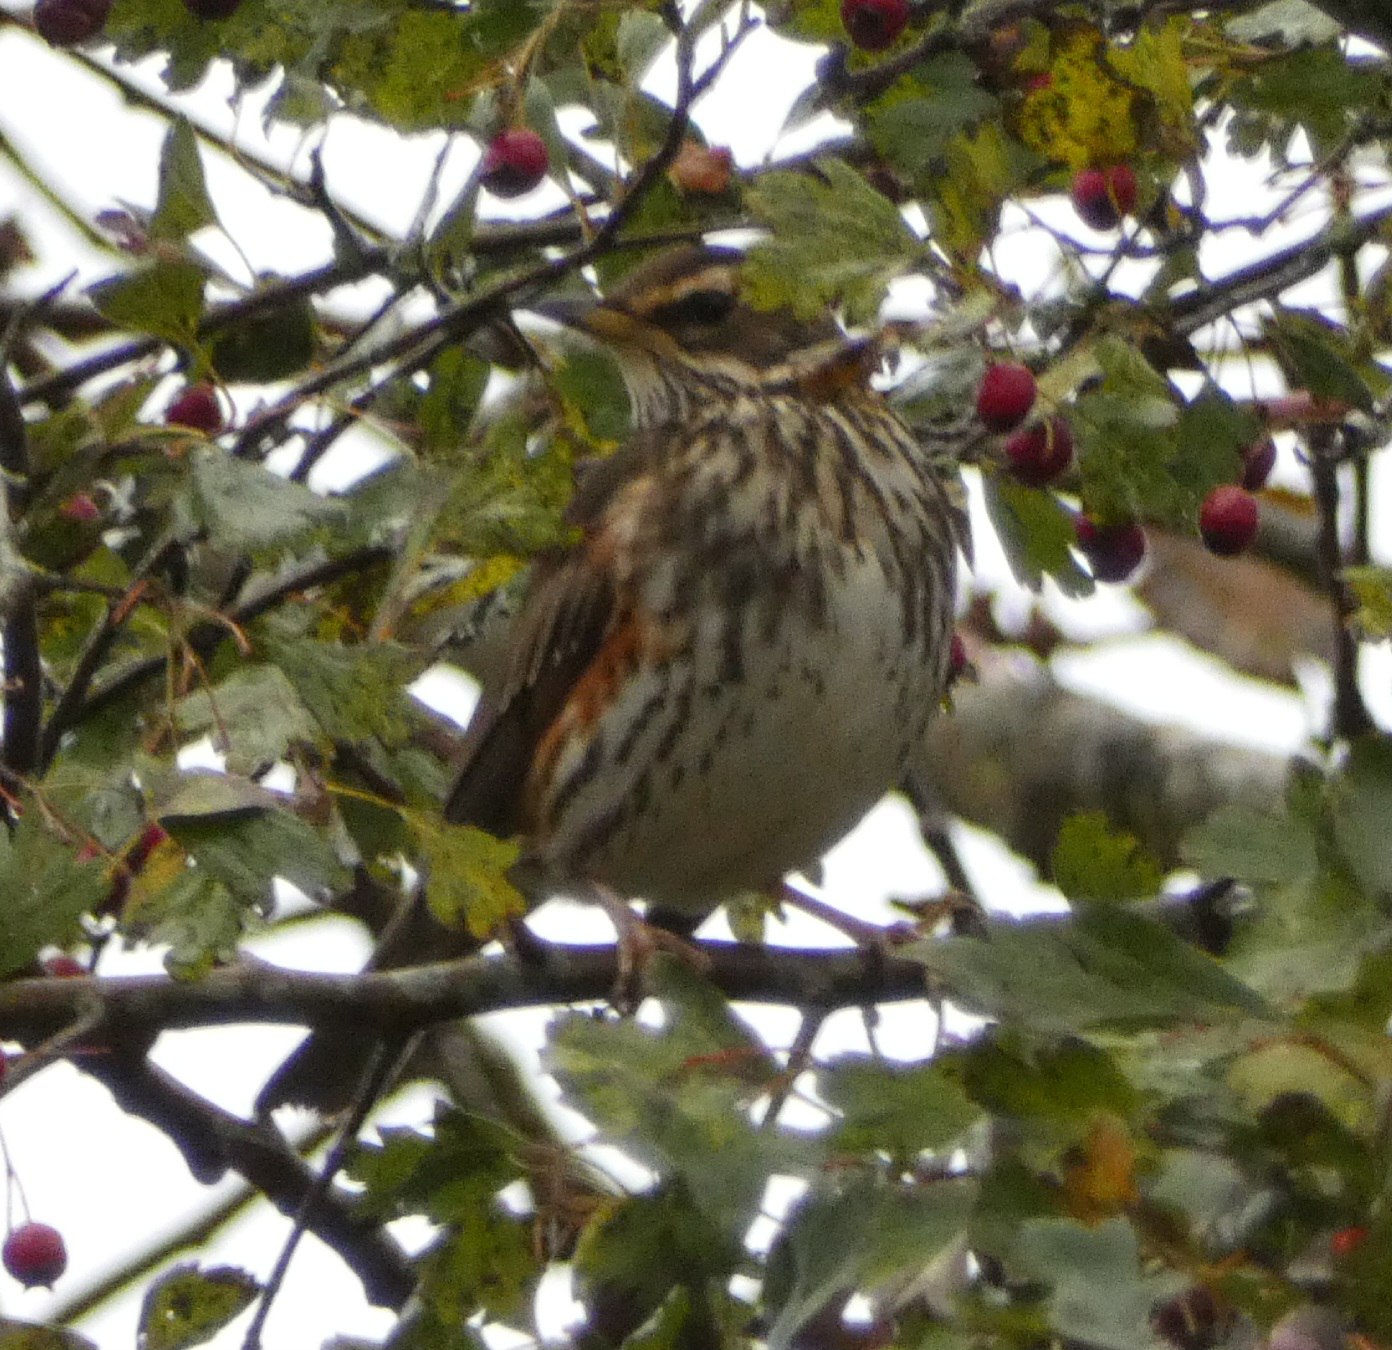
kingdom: Animalia
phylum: Chordata
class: Aves
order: Passeriformes
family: Turdidae
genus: Turdus
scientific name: Turdus iliacus
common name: Vindrossel
